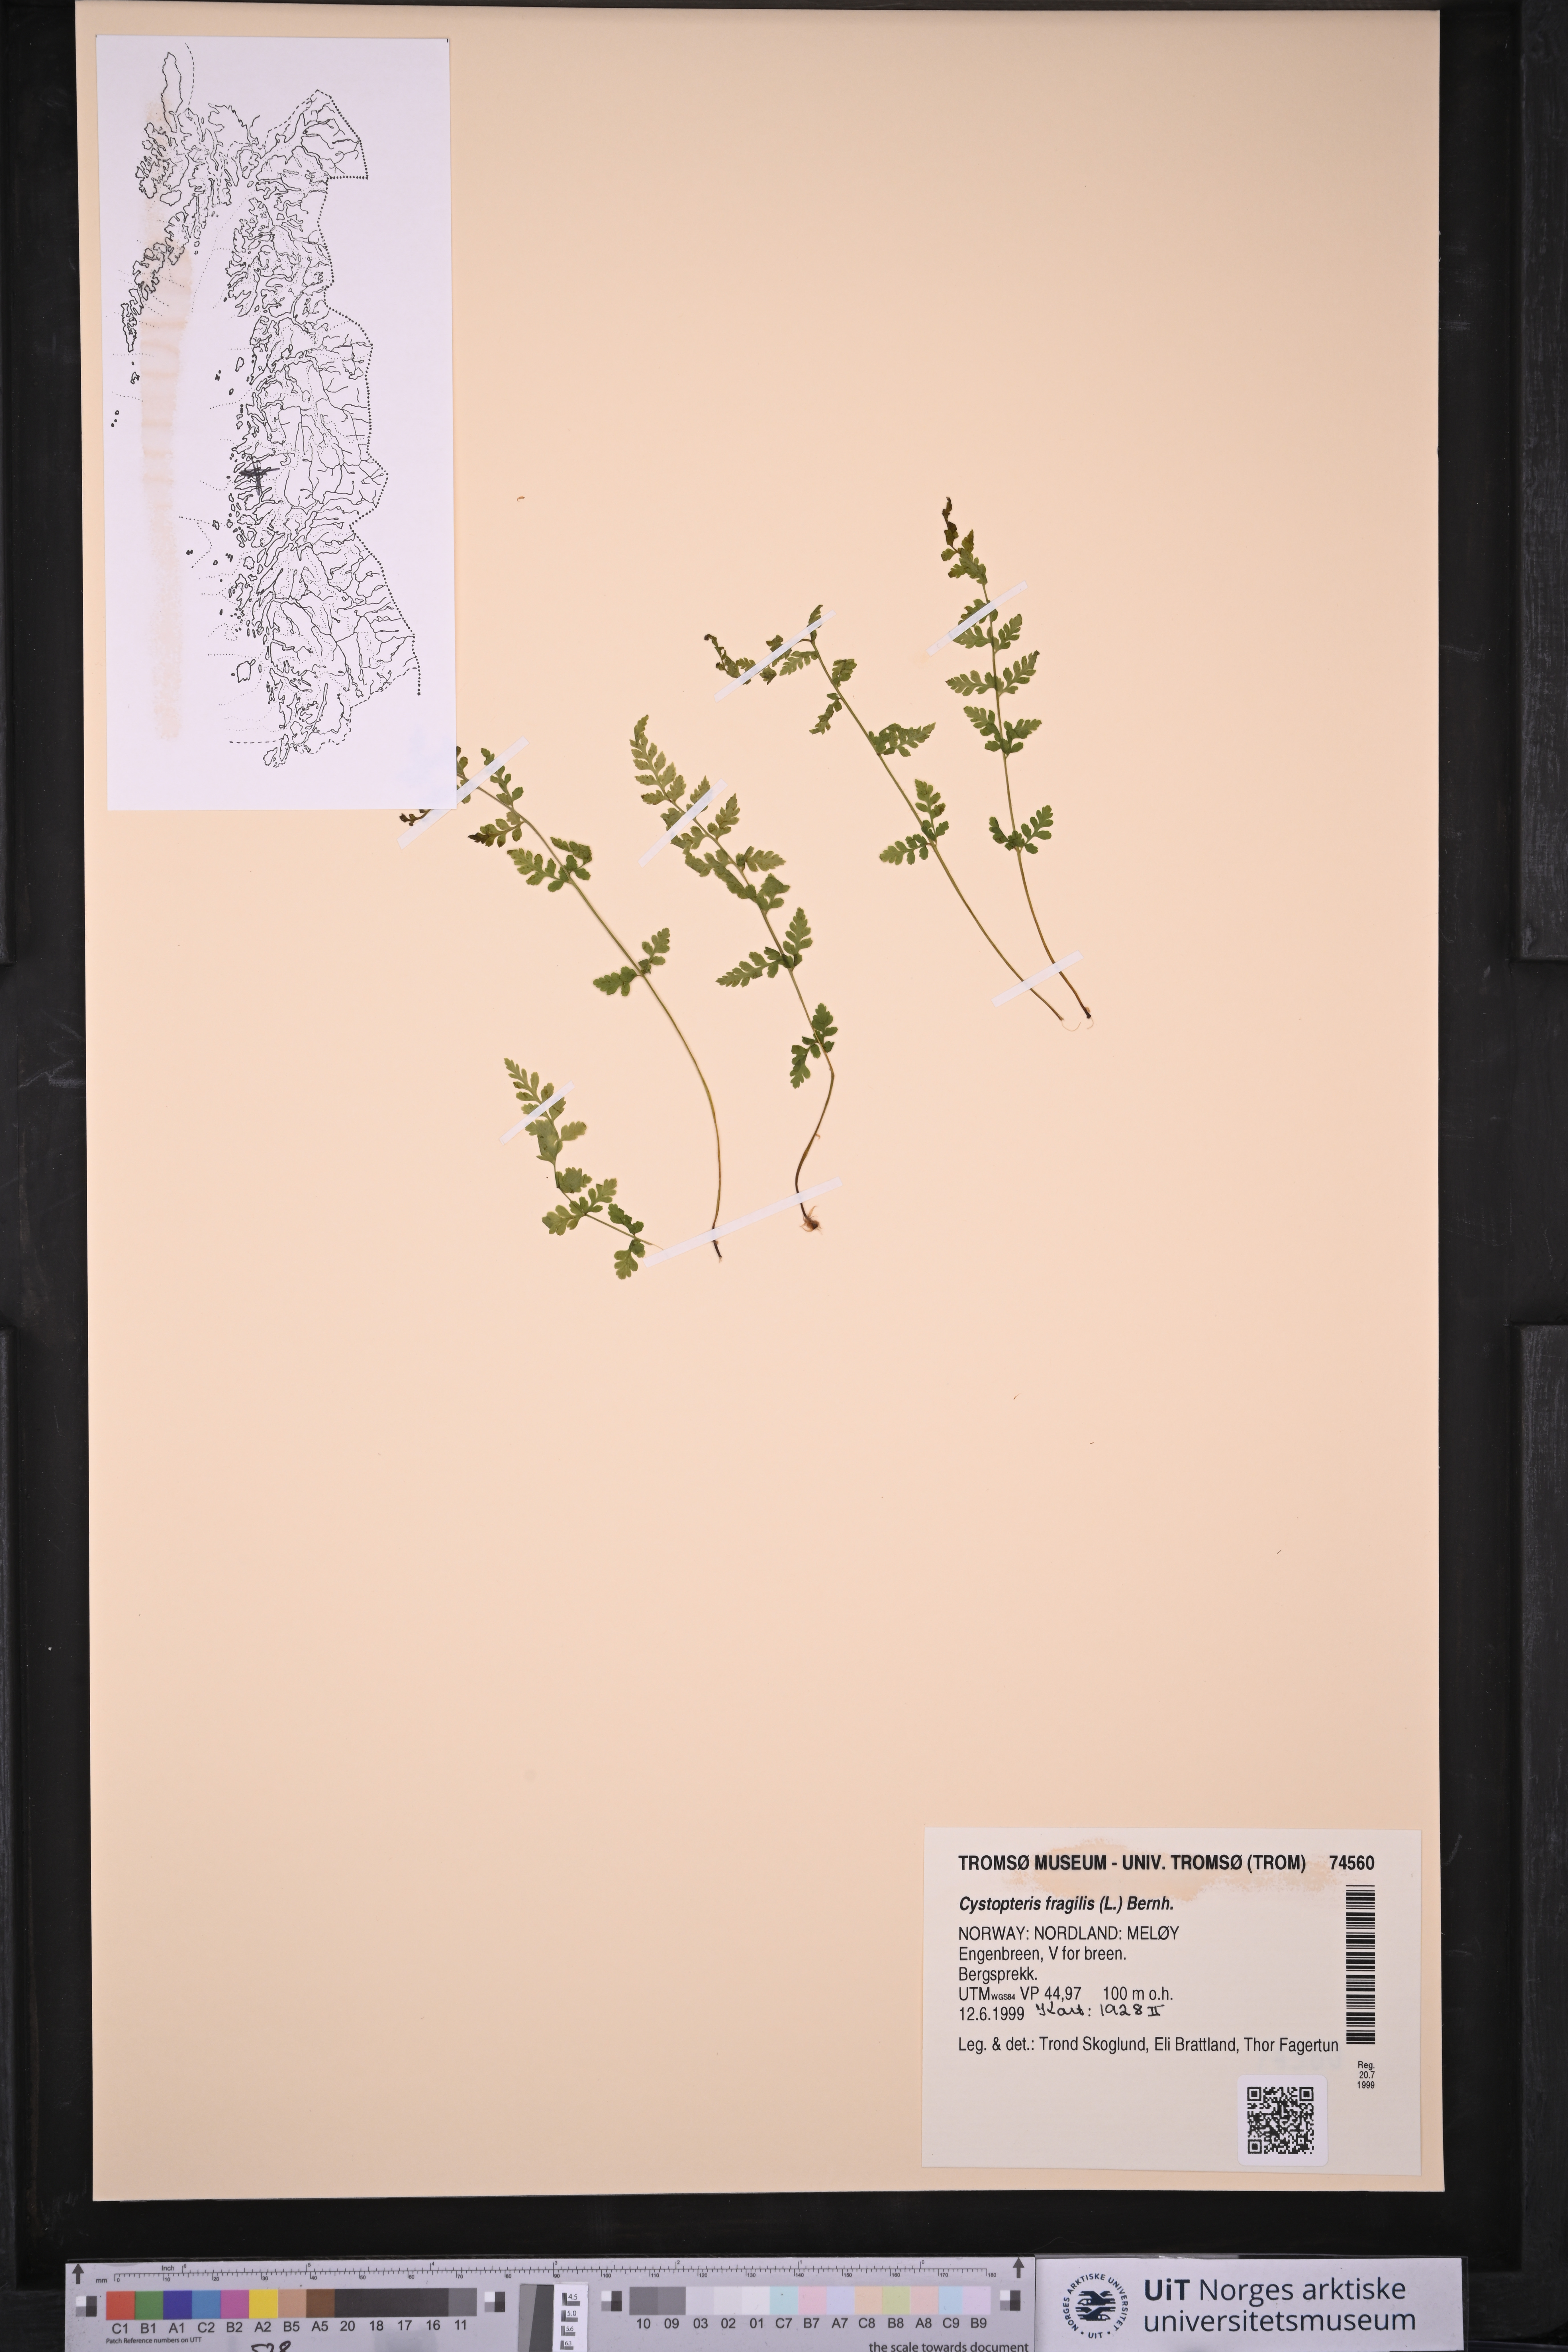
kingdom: Plantae
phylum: Tracheophyta
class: Polypodiopsida
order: Polypodiales
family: Cystopteridaceae
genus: Cystopteris
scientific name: Cystopteris fragilis
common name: Brittle bladder fern
